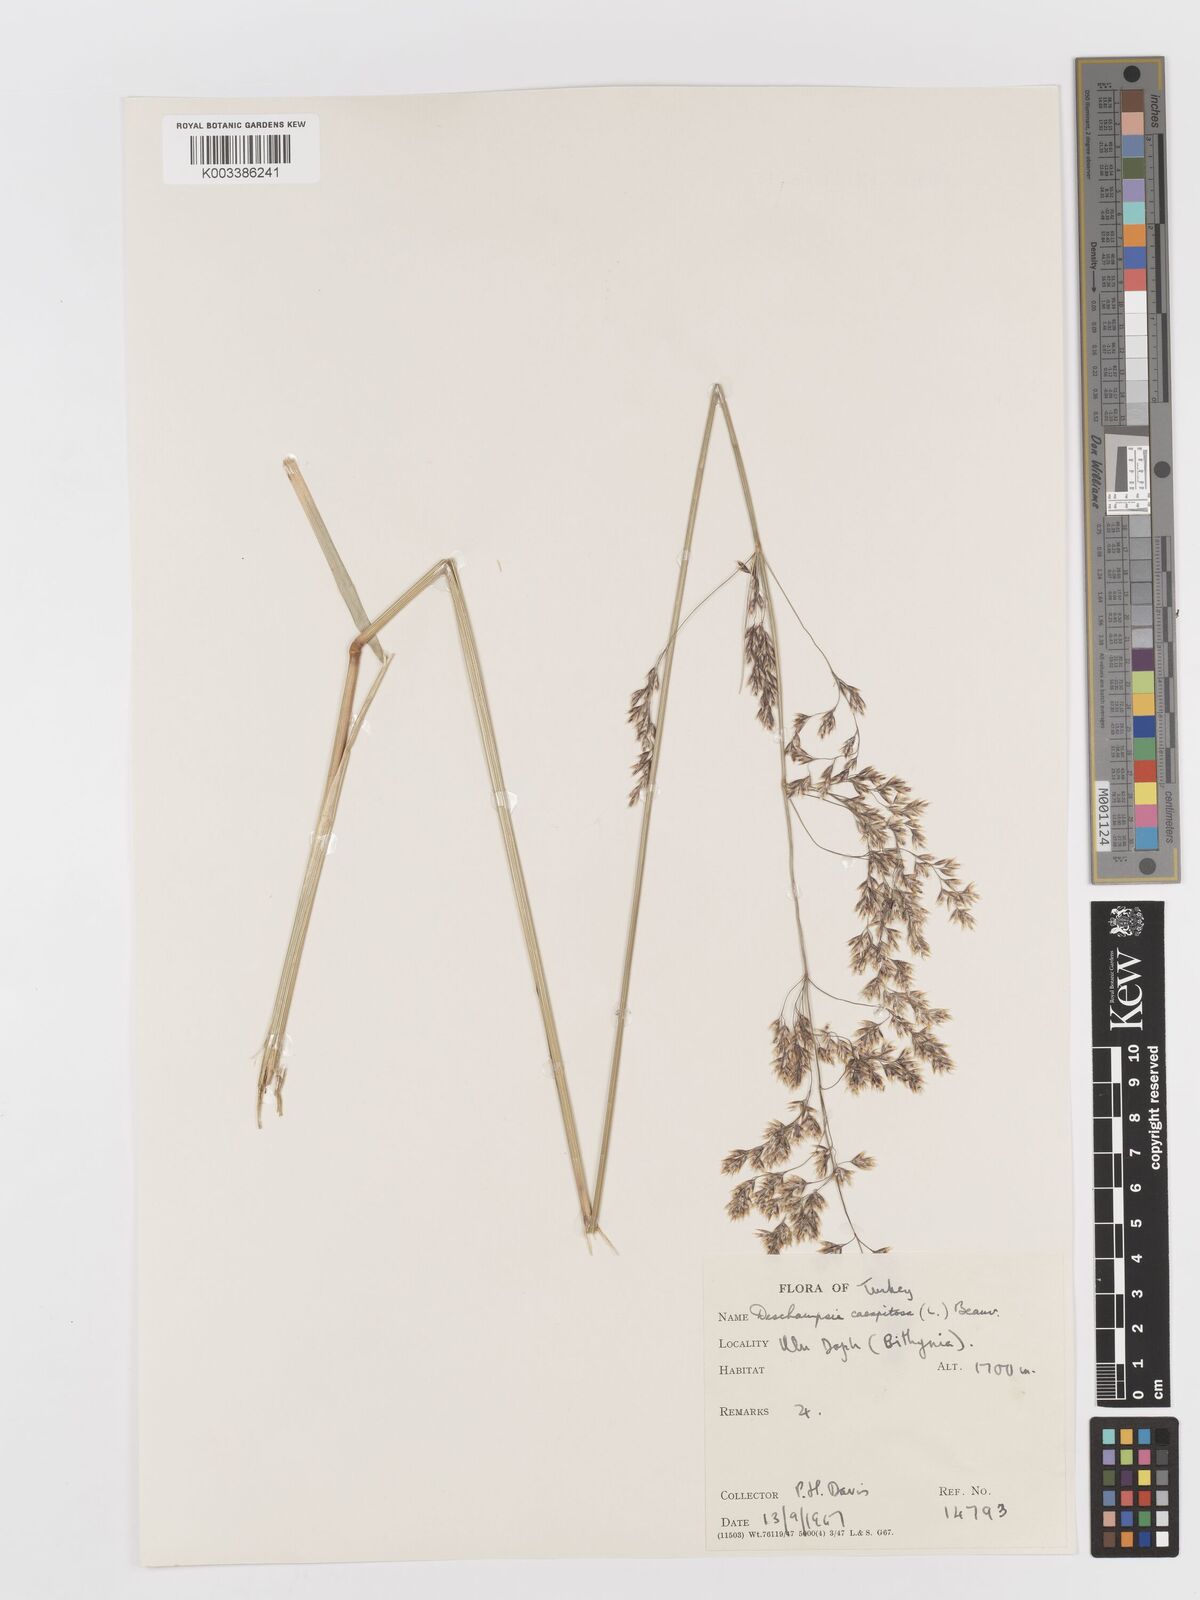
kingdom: Plantae
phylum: Tracheophyta
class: Liliopsida
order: Poales
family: Poaceae
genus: Deschampsia
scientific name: Deschampsia cespitosa
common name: Tufted hair-grass
